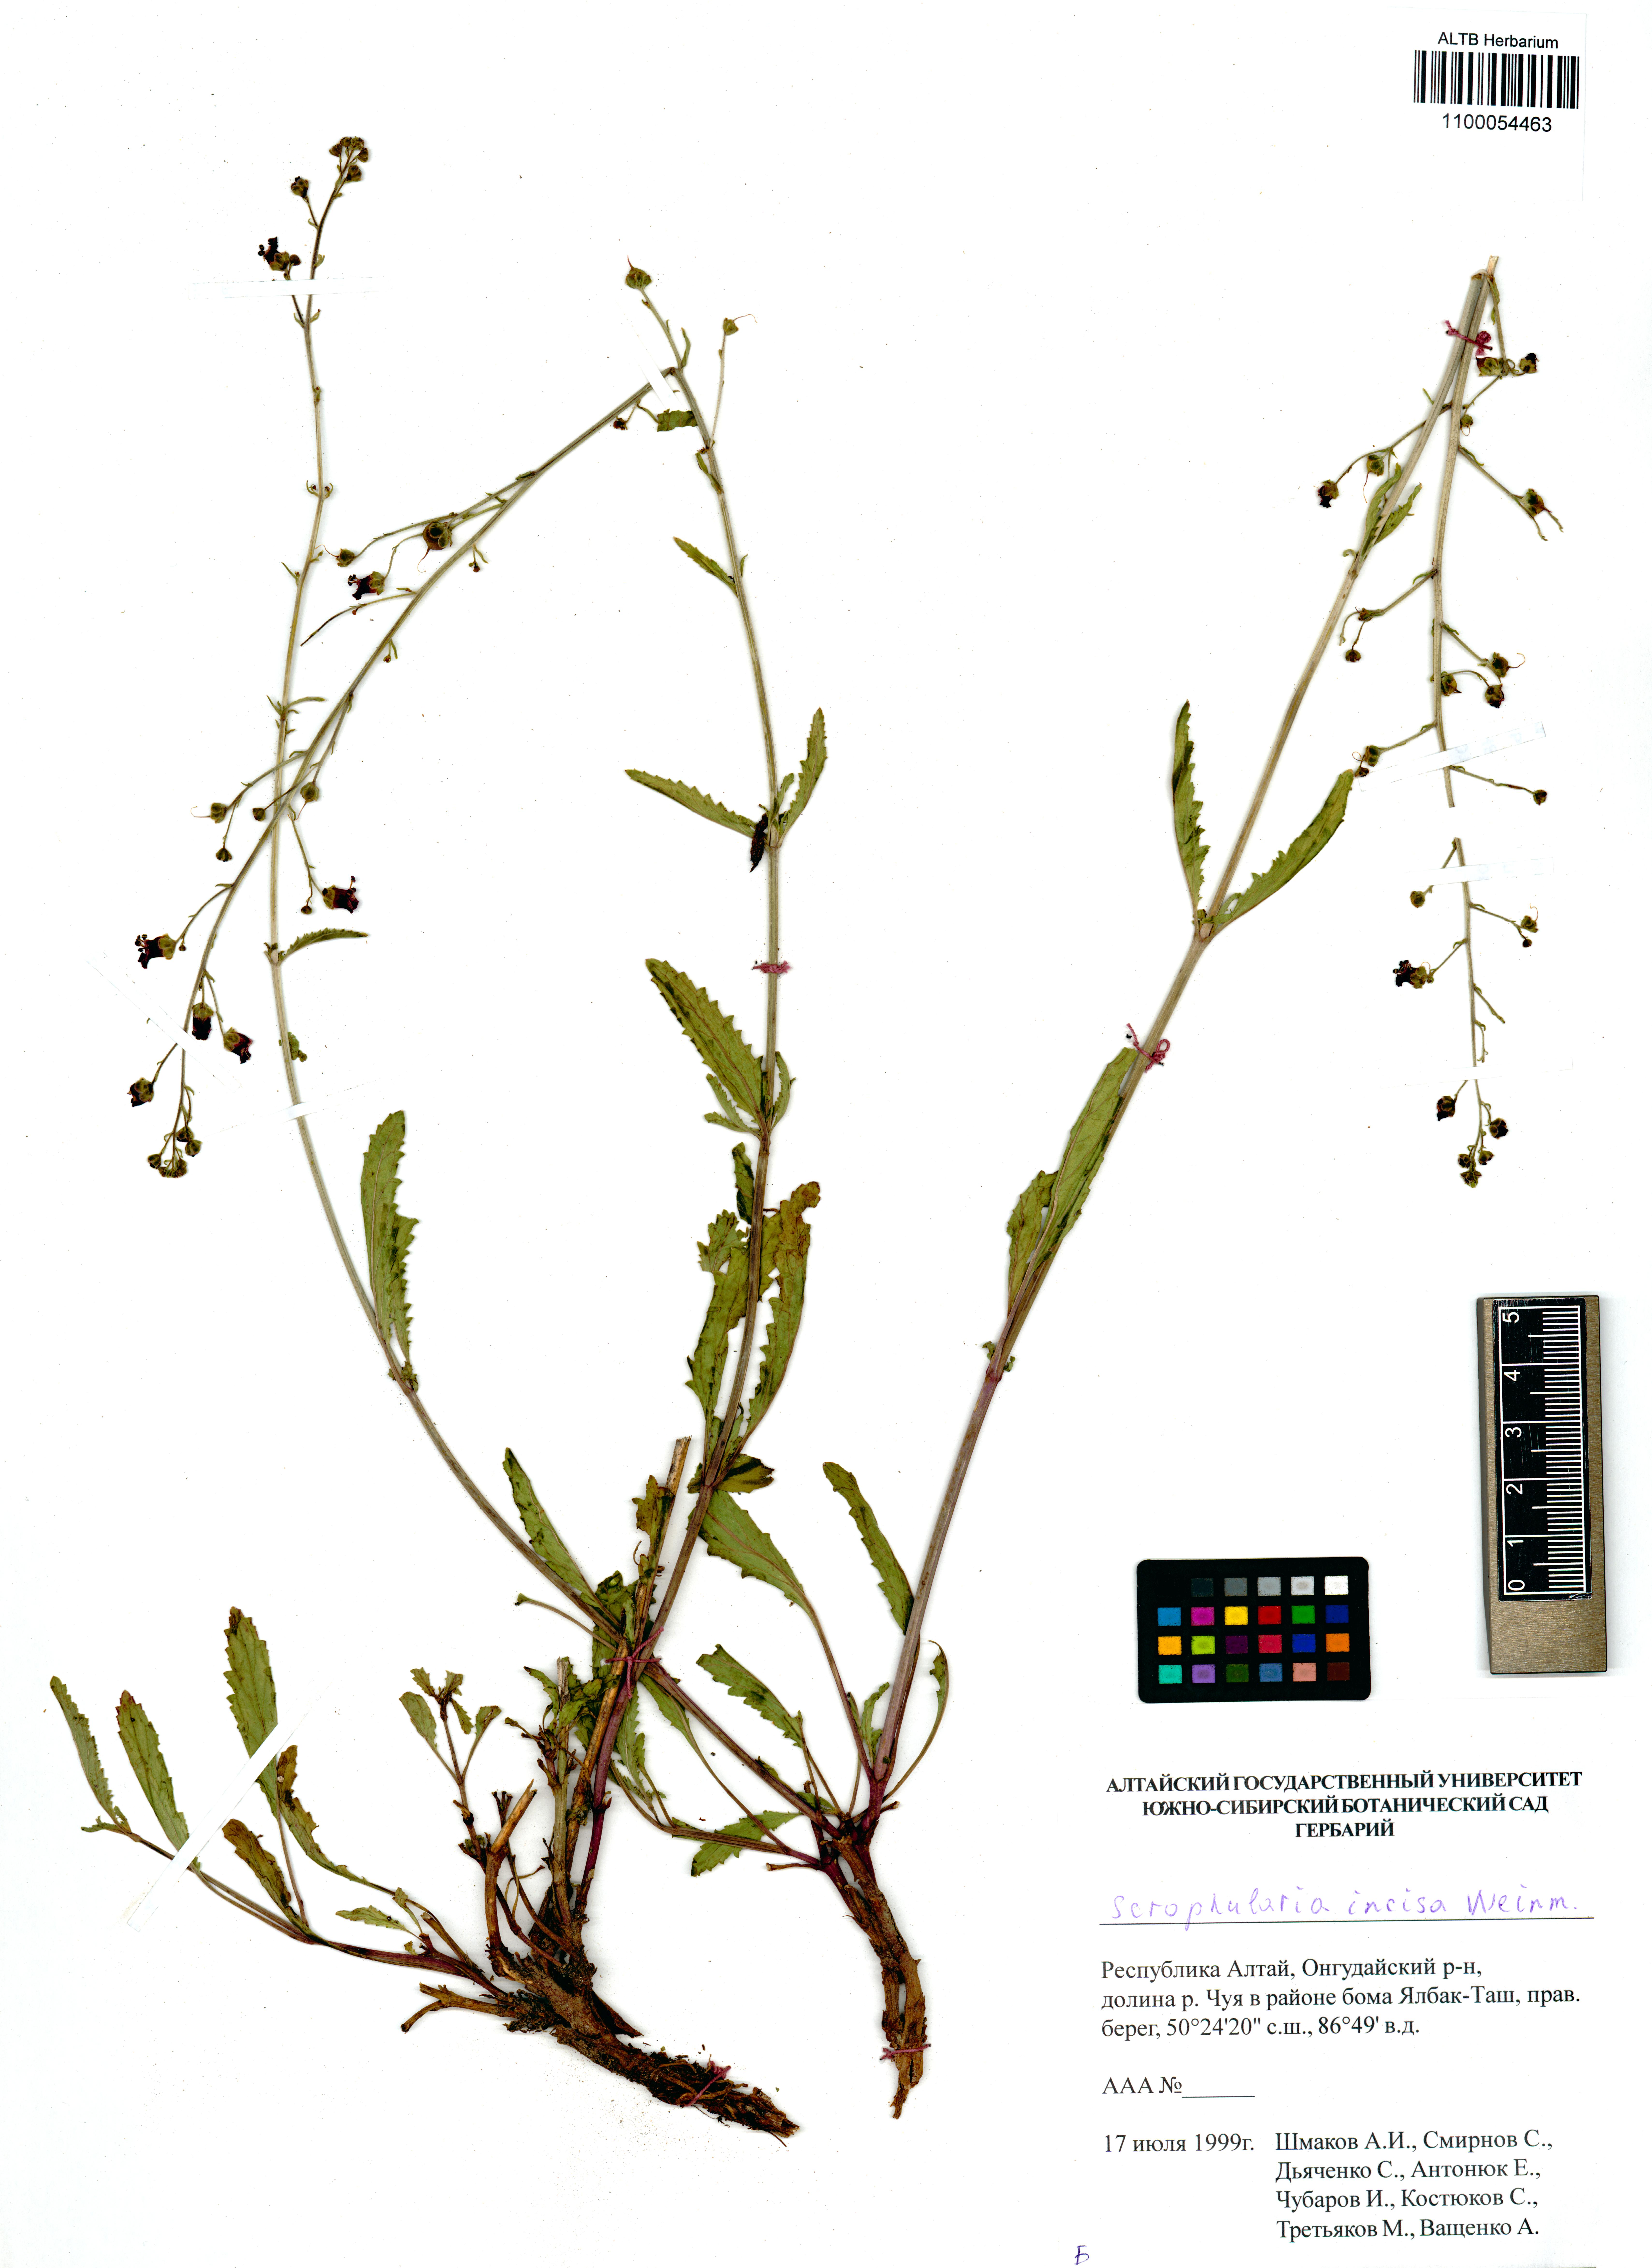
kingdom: Plantae
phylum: Tracheophyta
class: Magnoliopsida
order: Lamiales
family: Scrophulariaceae
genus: Scrophularia
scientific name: Scrophularia incisa
